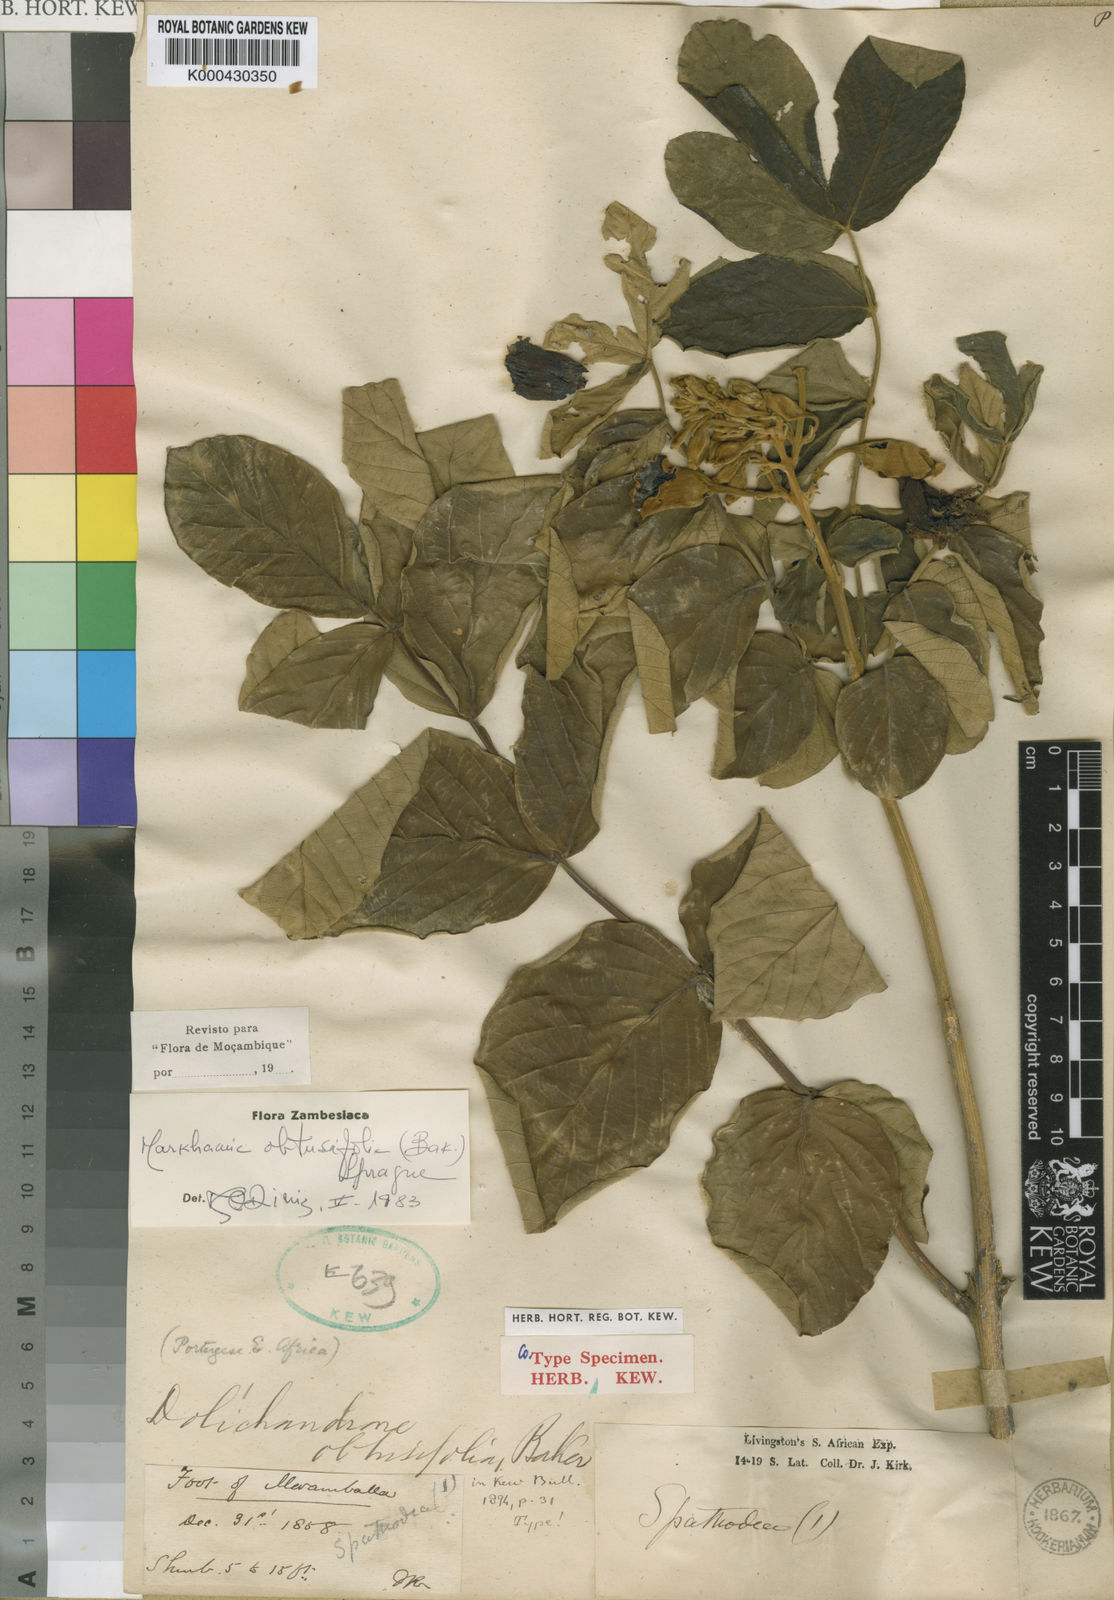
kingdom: Plantae
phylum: Tracheophyta
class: Magnoliopsida
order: Lamiales
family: Bignoniaceae
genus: Markhamia
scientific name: Markhamia obtusifolia
